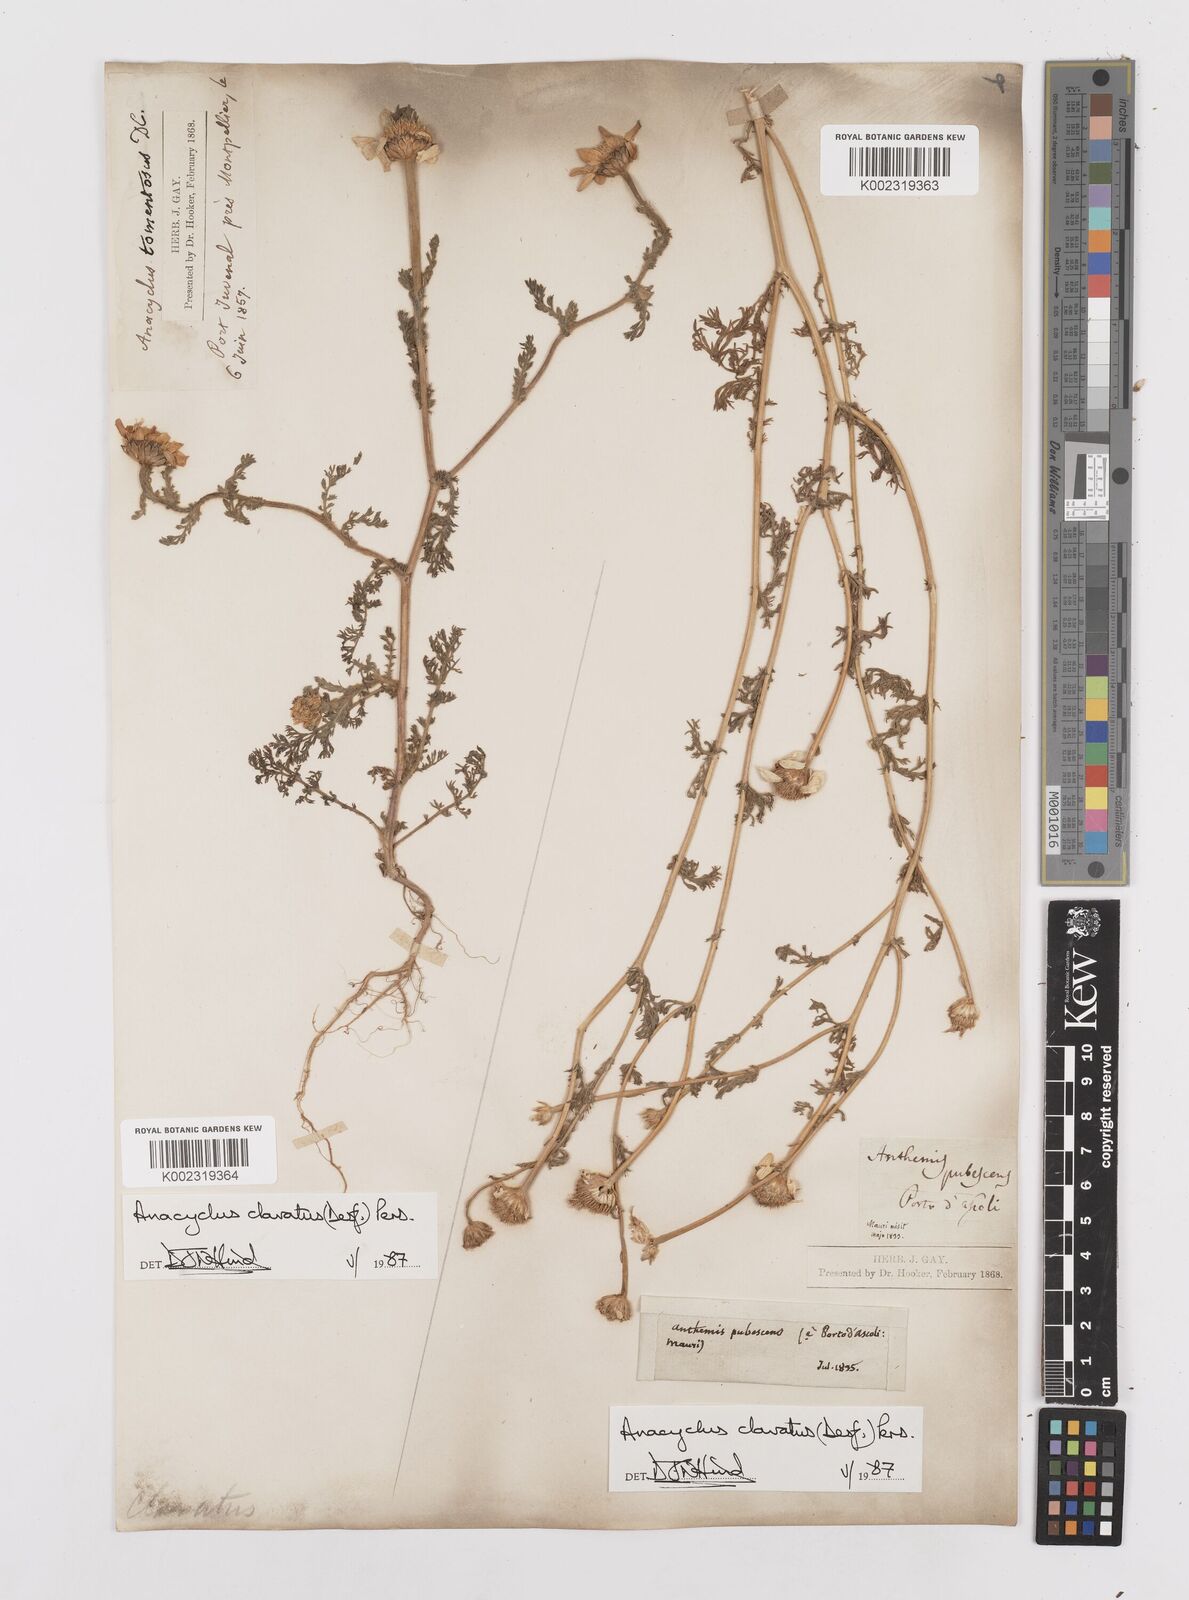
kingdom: Plantae
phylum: Tracheophyta
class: Magnoliopsida
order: Asterales
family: Asteraceae
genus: Anacyclus
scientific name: Anacyclus clavatus
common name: Whitebuttons
